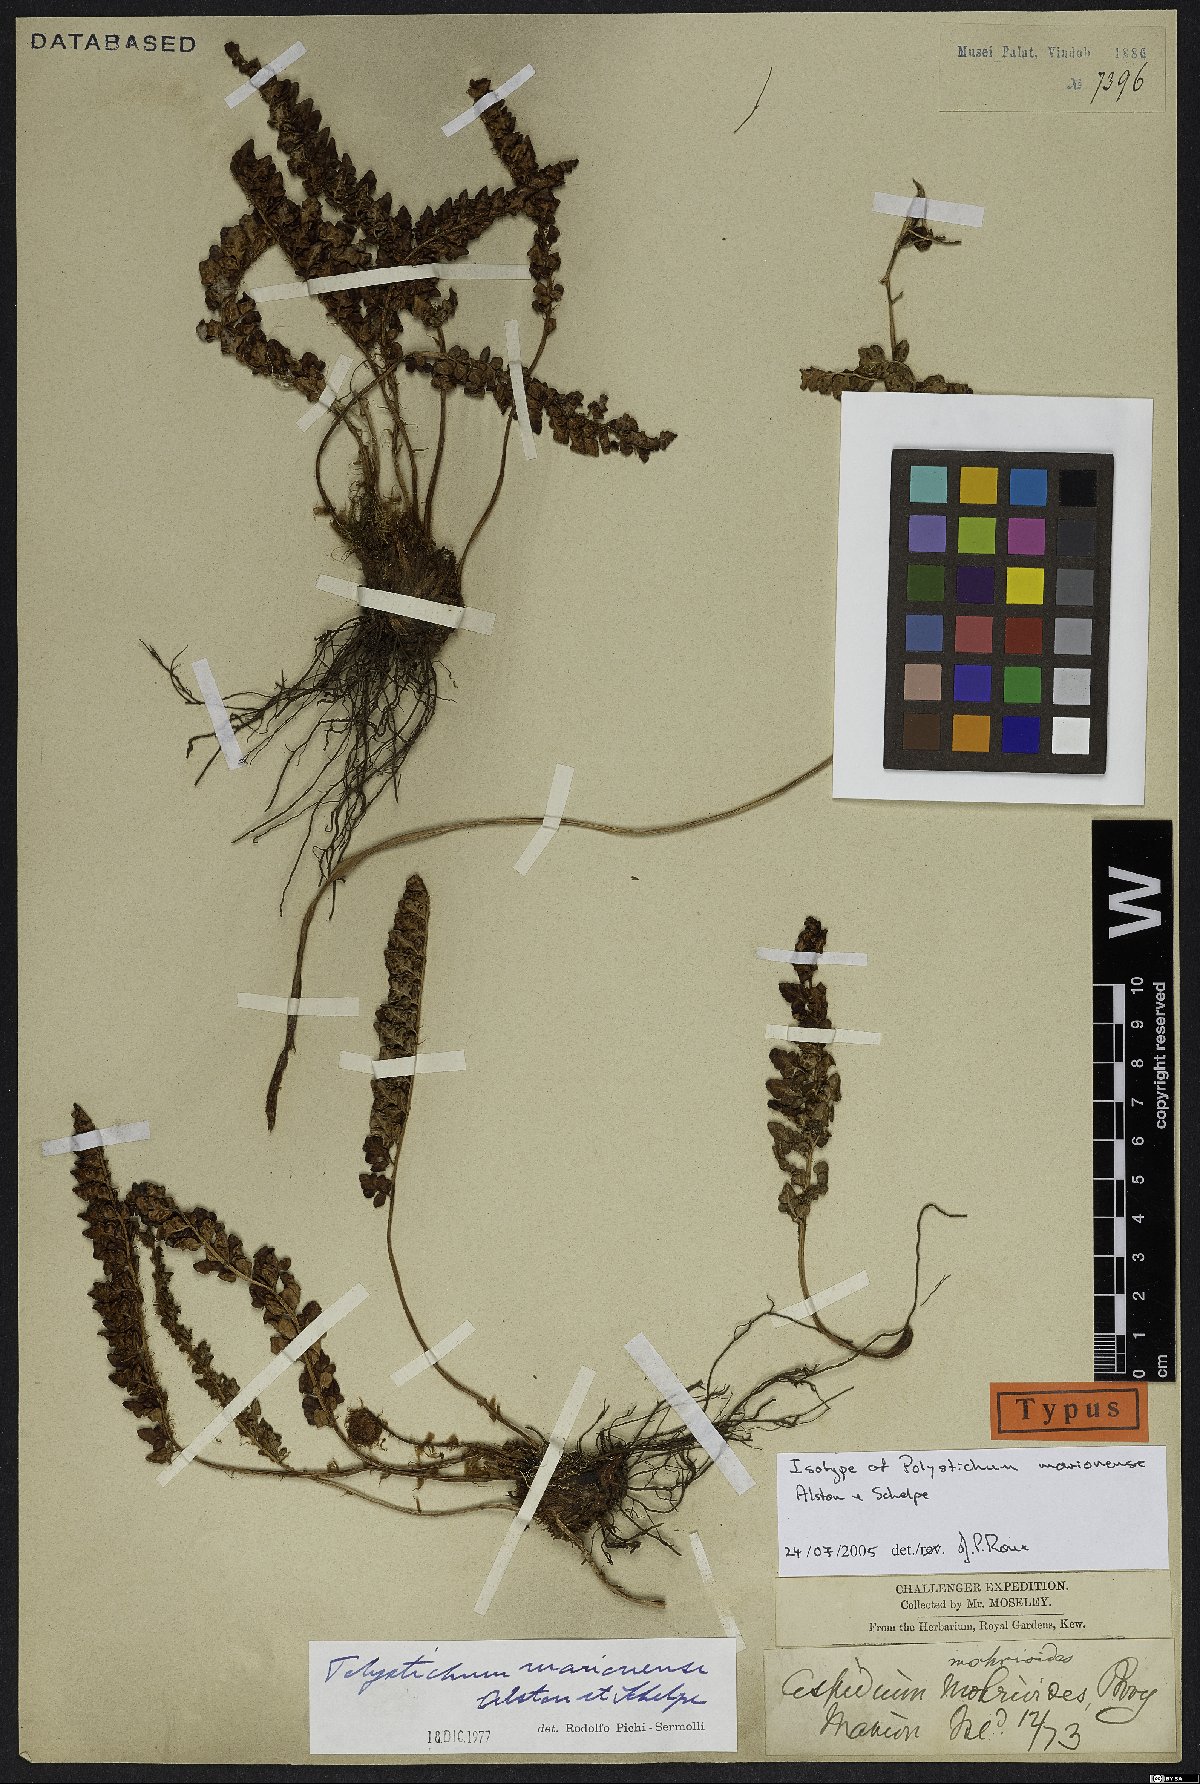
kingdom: Plantae
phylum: Tracheophyta
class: Polypodiopsida
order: Polypodiales
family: Dryopteridaceae
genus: Polystichum
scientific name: Polystichum marionense
